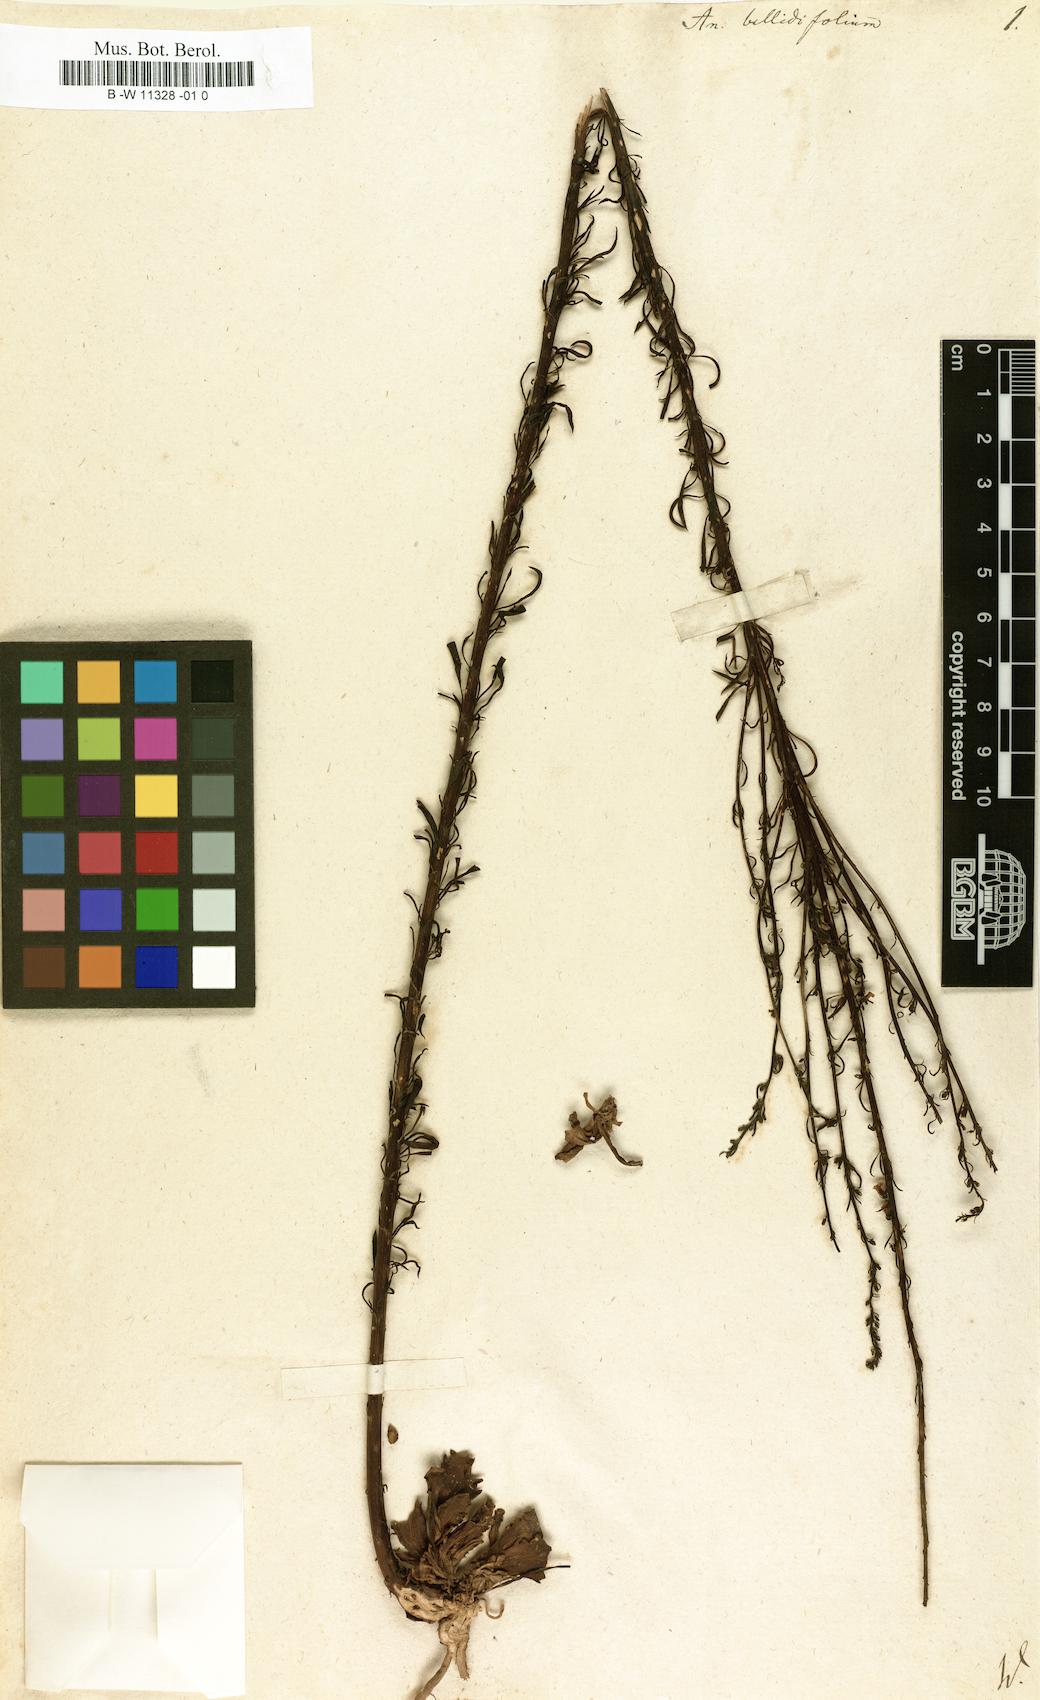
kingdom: Plantae
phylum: Tracheophyta
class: Magnoliopsida
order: Lamiales
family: Plantaginaceae
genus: Anarrhinum
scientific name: Anarrhinum bellidifolium
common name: Daisy-leaved toadflax
